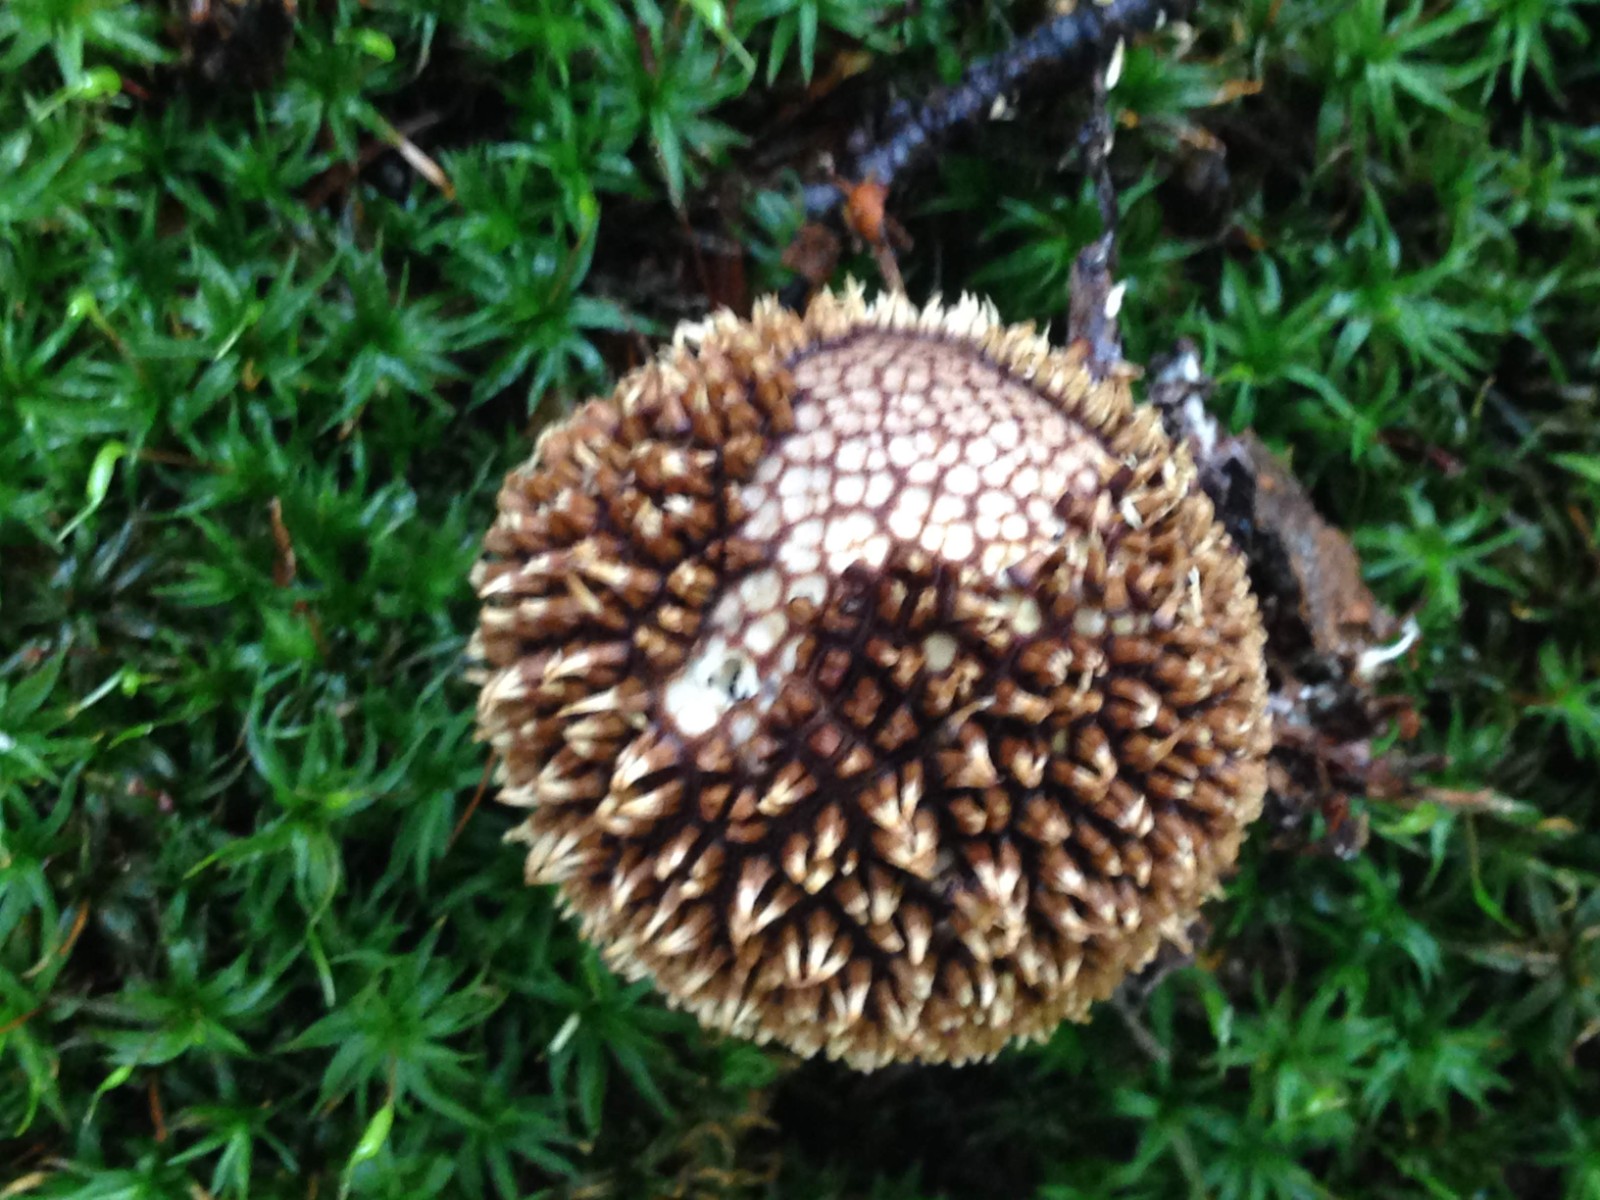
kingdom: Fungi
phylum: Basidiomycota
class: Agaricomycetes
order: Agaricales
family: Lycoperdaceae
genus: Lycoperdon
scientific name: Lycoperdon echinatum
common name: pindsvine-støvbold
